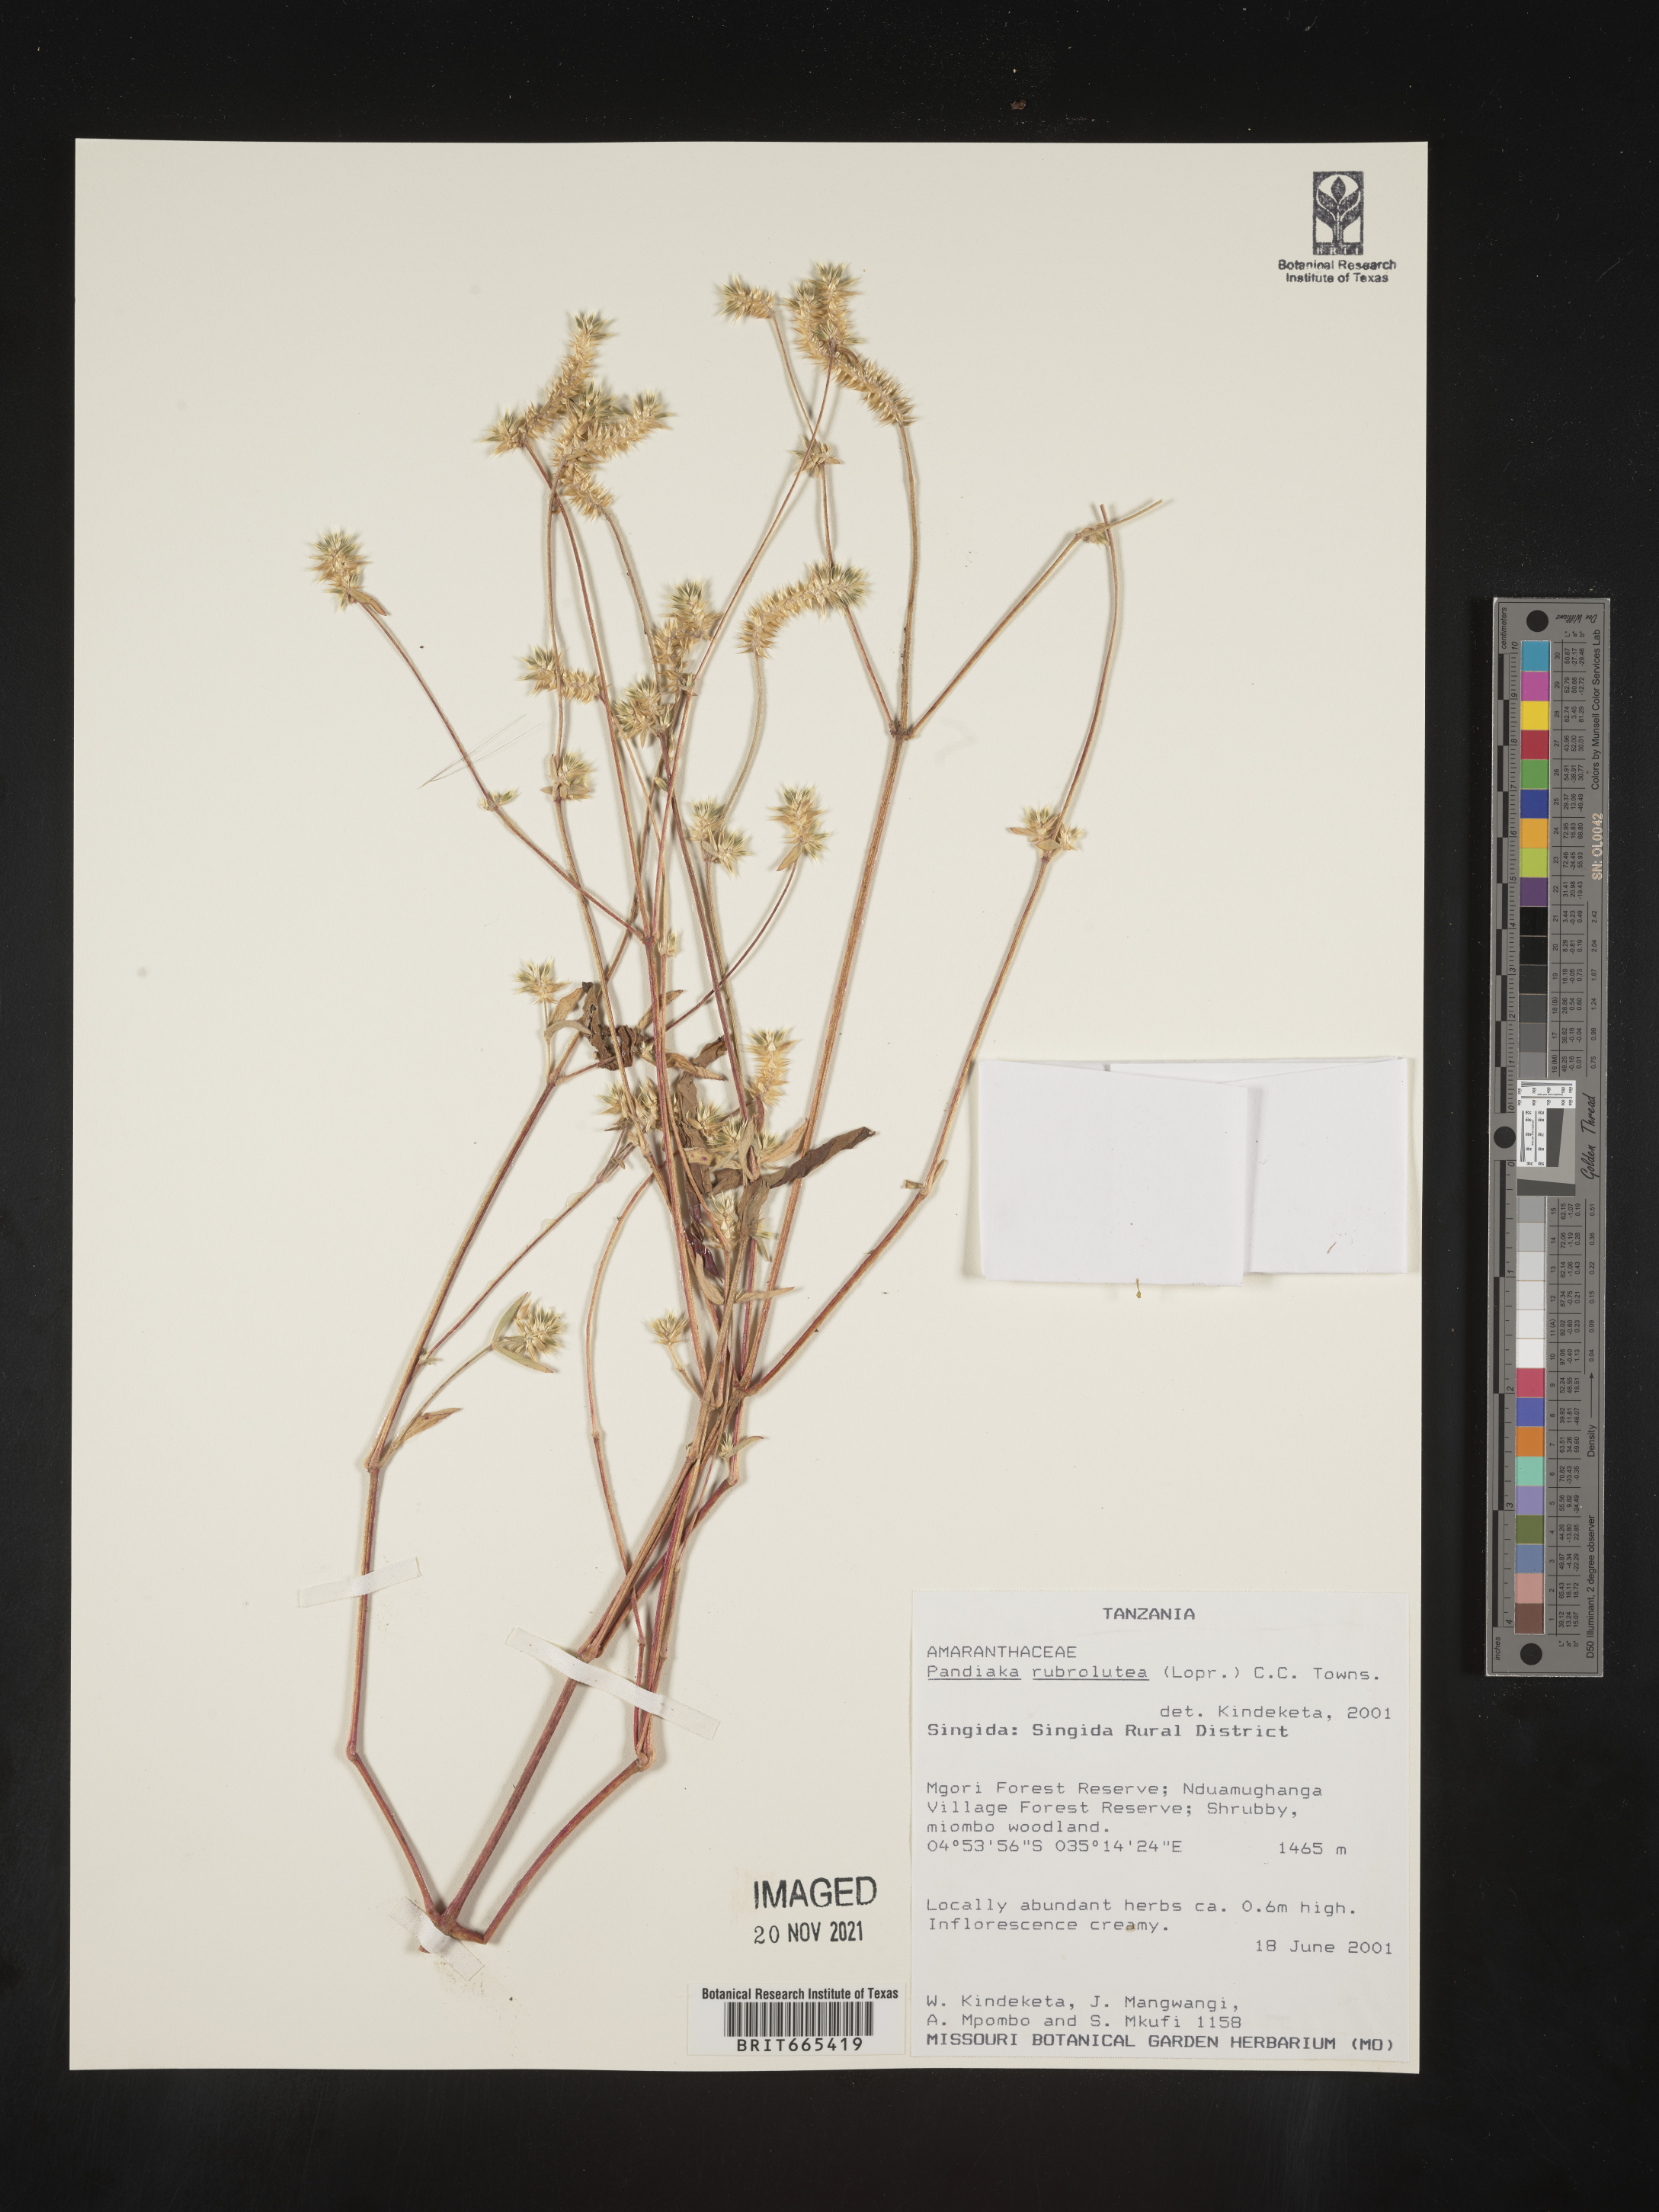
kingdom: Plantae
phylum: Tracheophyta
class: Magnoliopsida
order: Caryophyllales
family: Amaranthaceae
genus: Pandiaka
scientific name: Pandiaka
